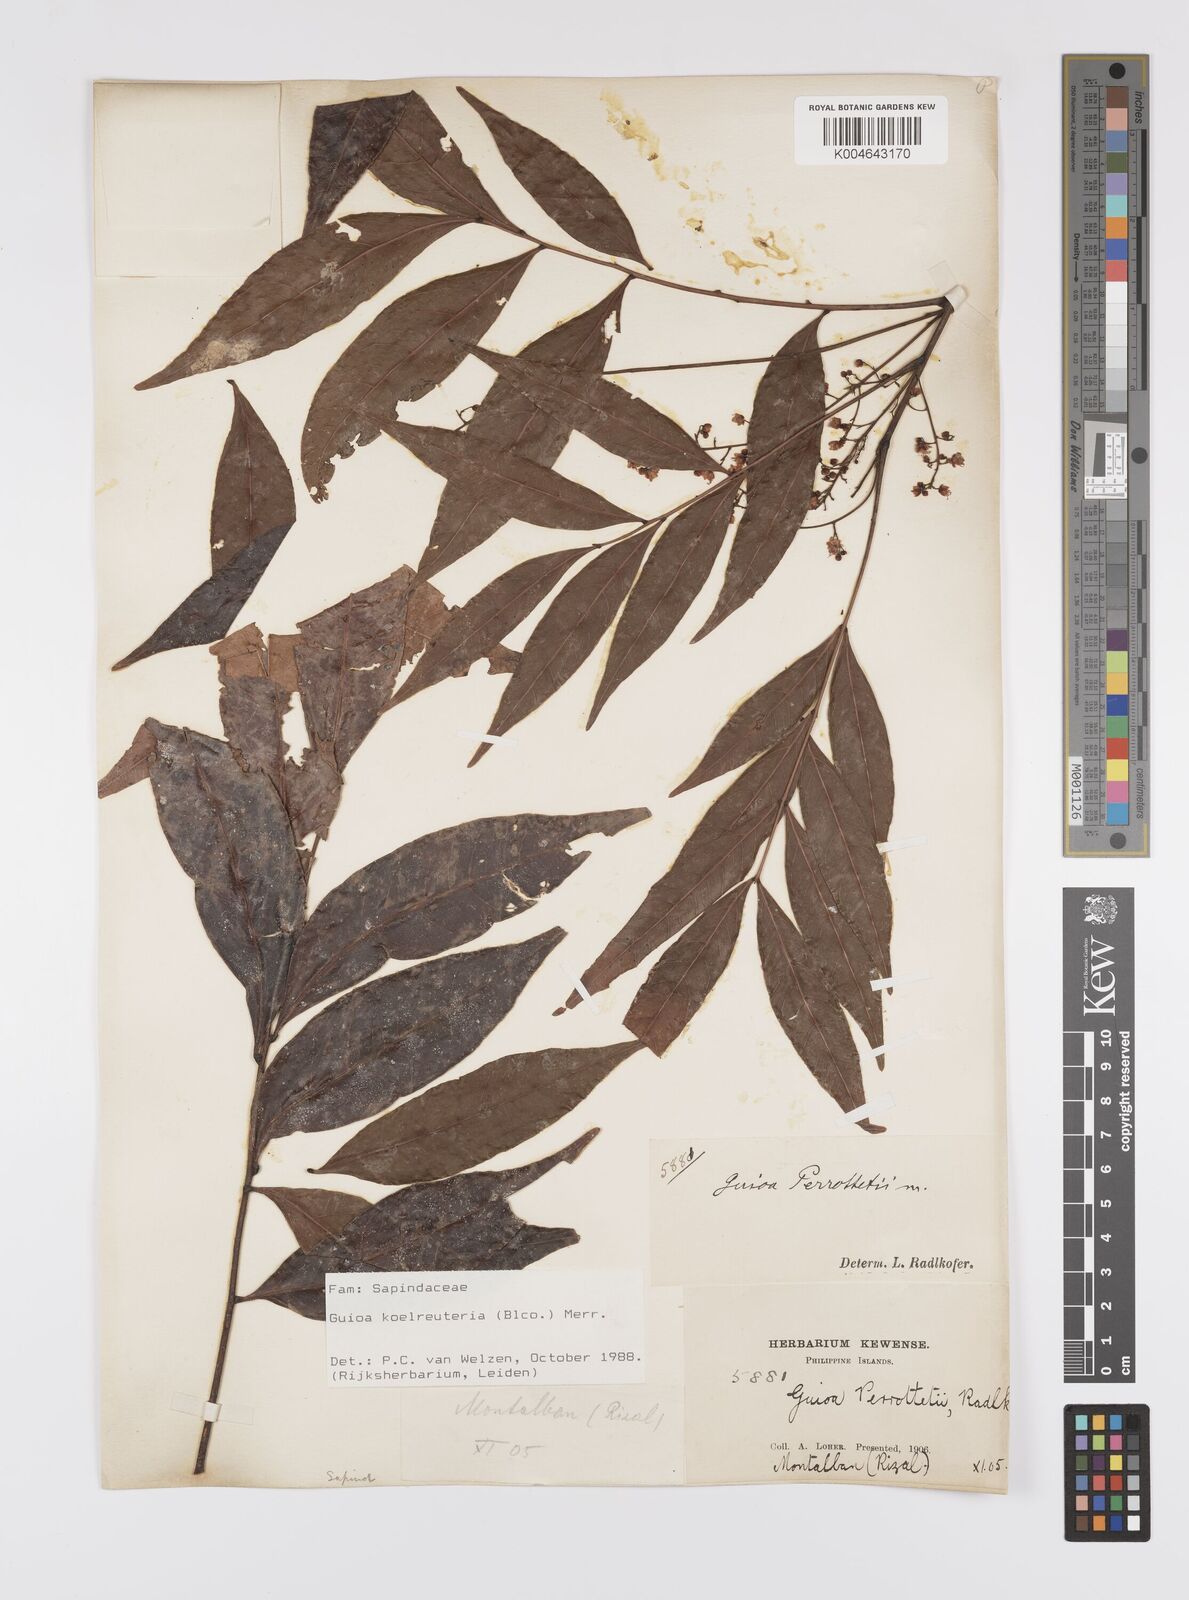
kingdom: Plantae
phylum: Tracheophyta
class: Magnoliopsida
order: Sapindales
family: Sapindaceae
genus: Guioa
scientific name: Guioa koelreuteria
